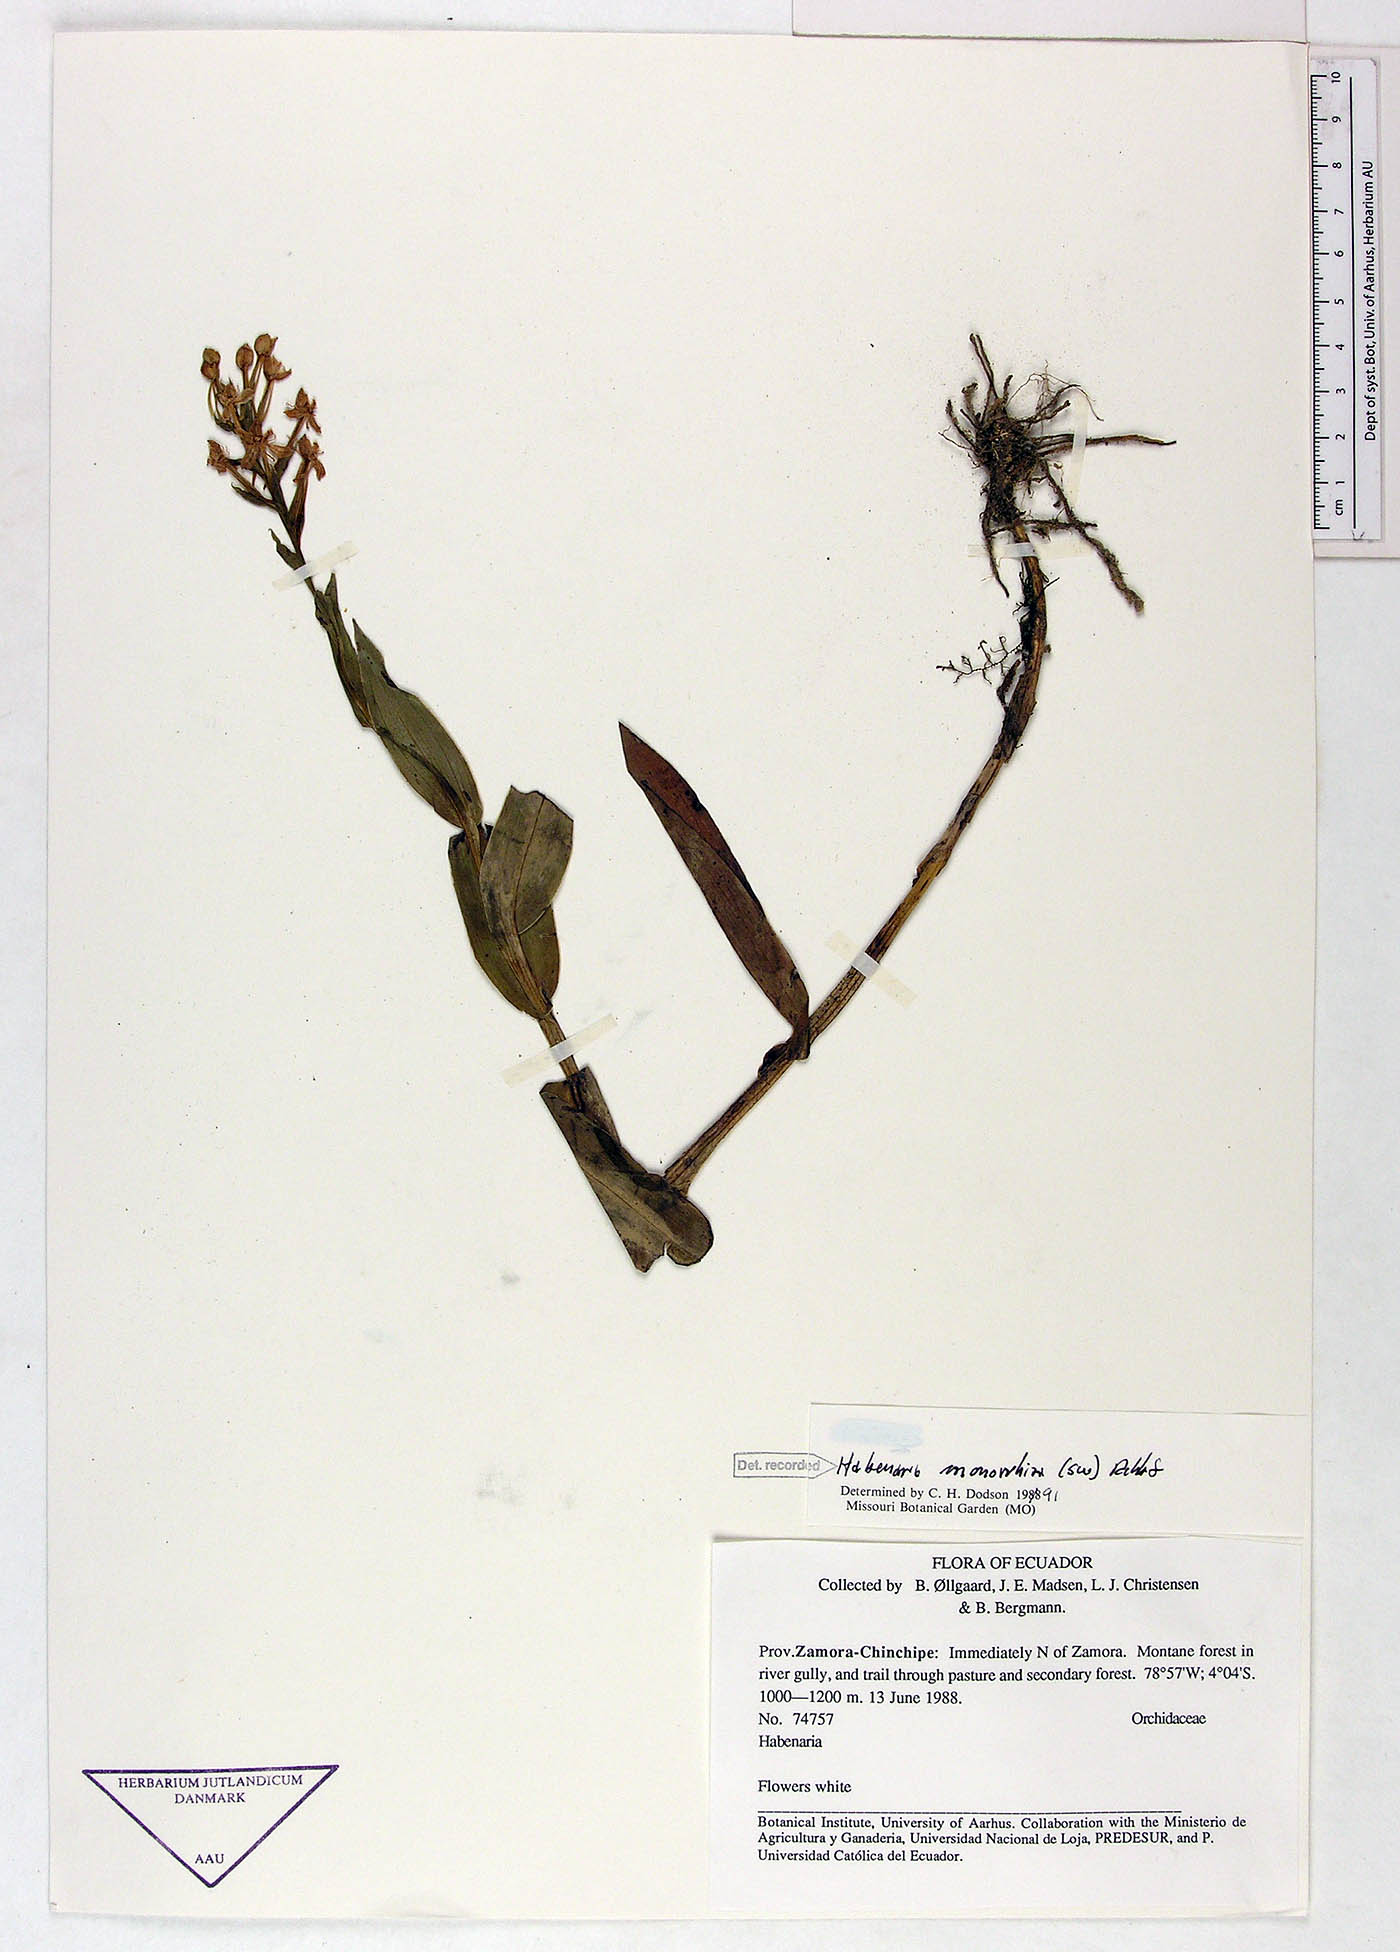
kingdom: Plantae
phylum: Tracheophyta
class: Liliopsida
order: Asparagales
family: Orchidaceae
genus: Habenaria
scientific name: Habenaria monorrhiza
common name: Tropical bog orchid
